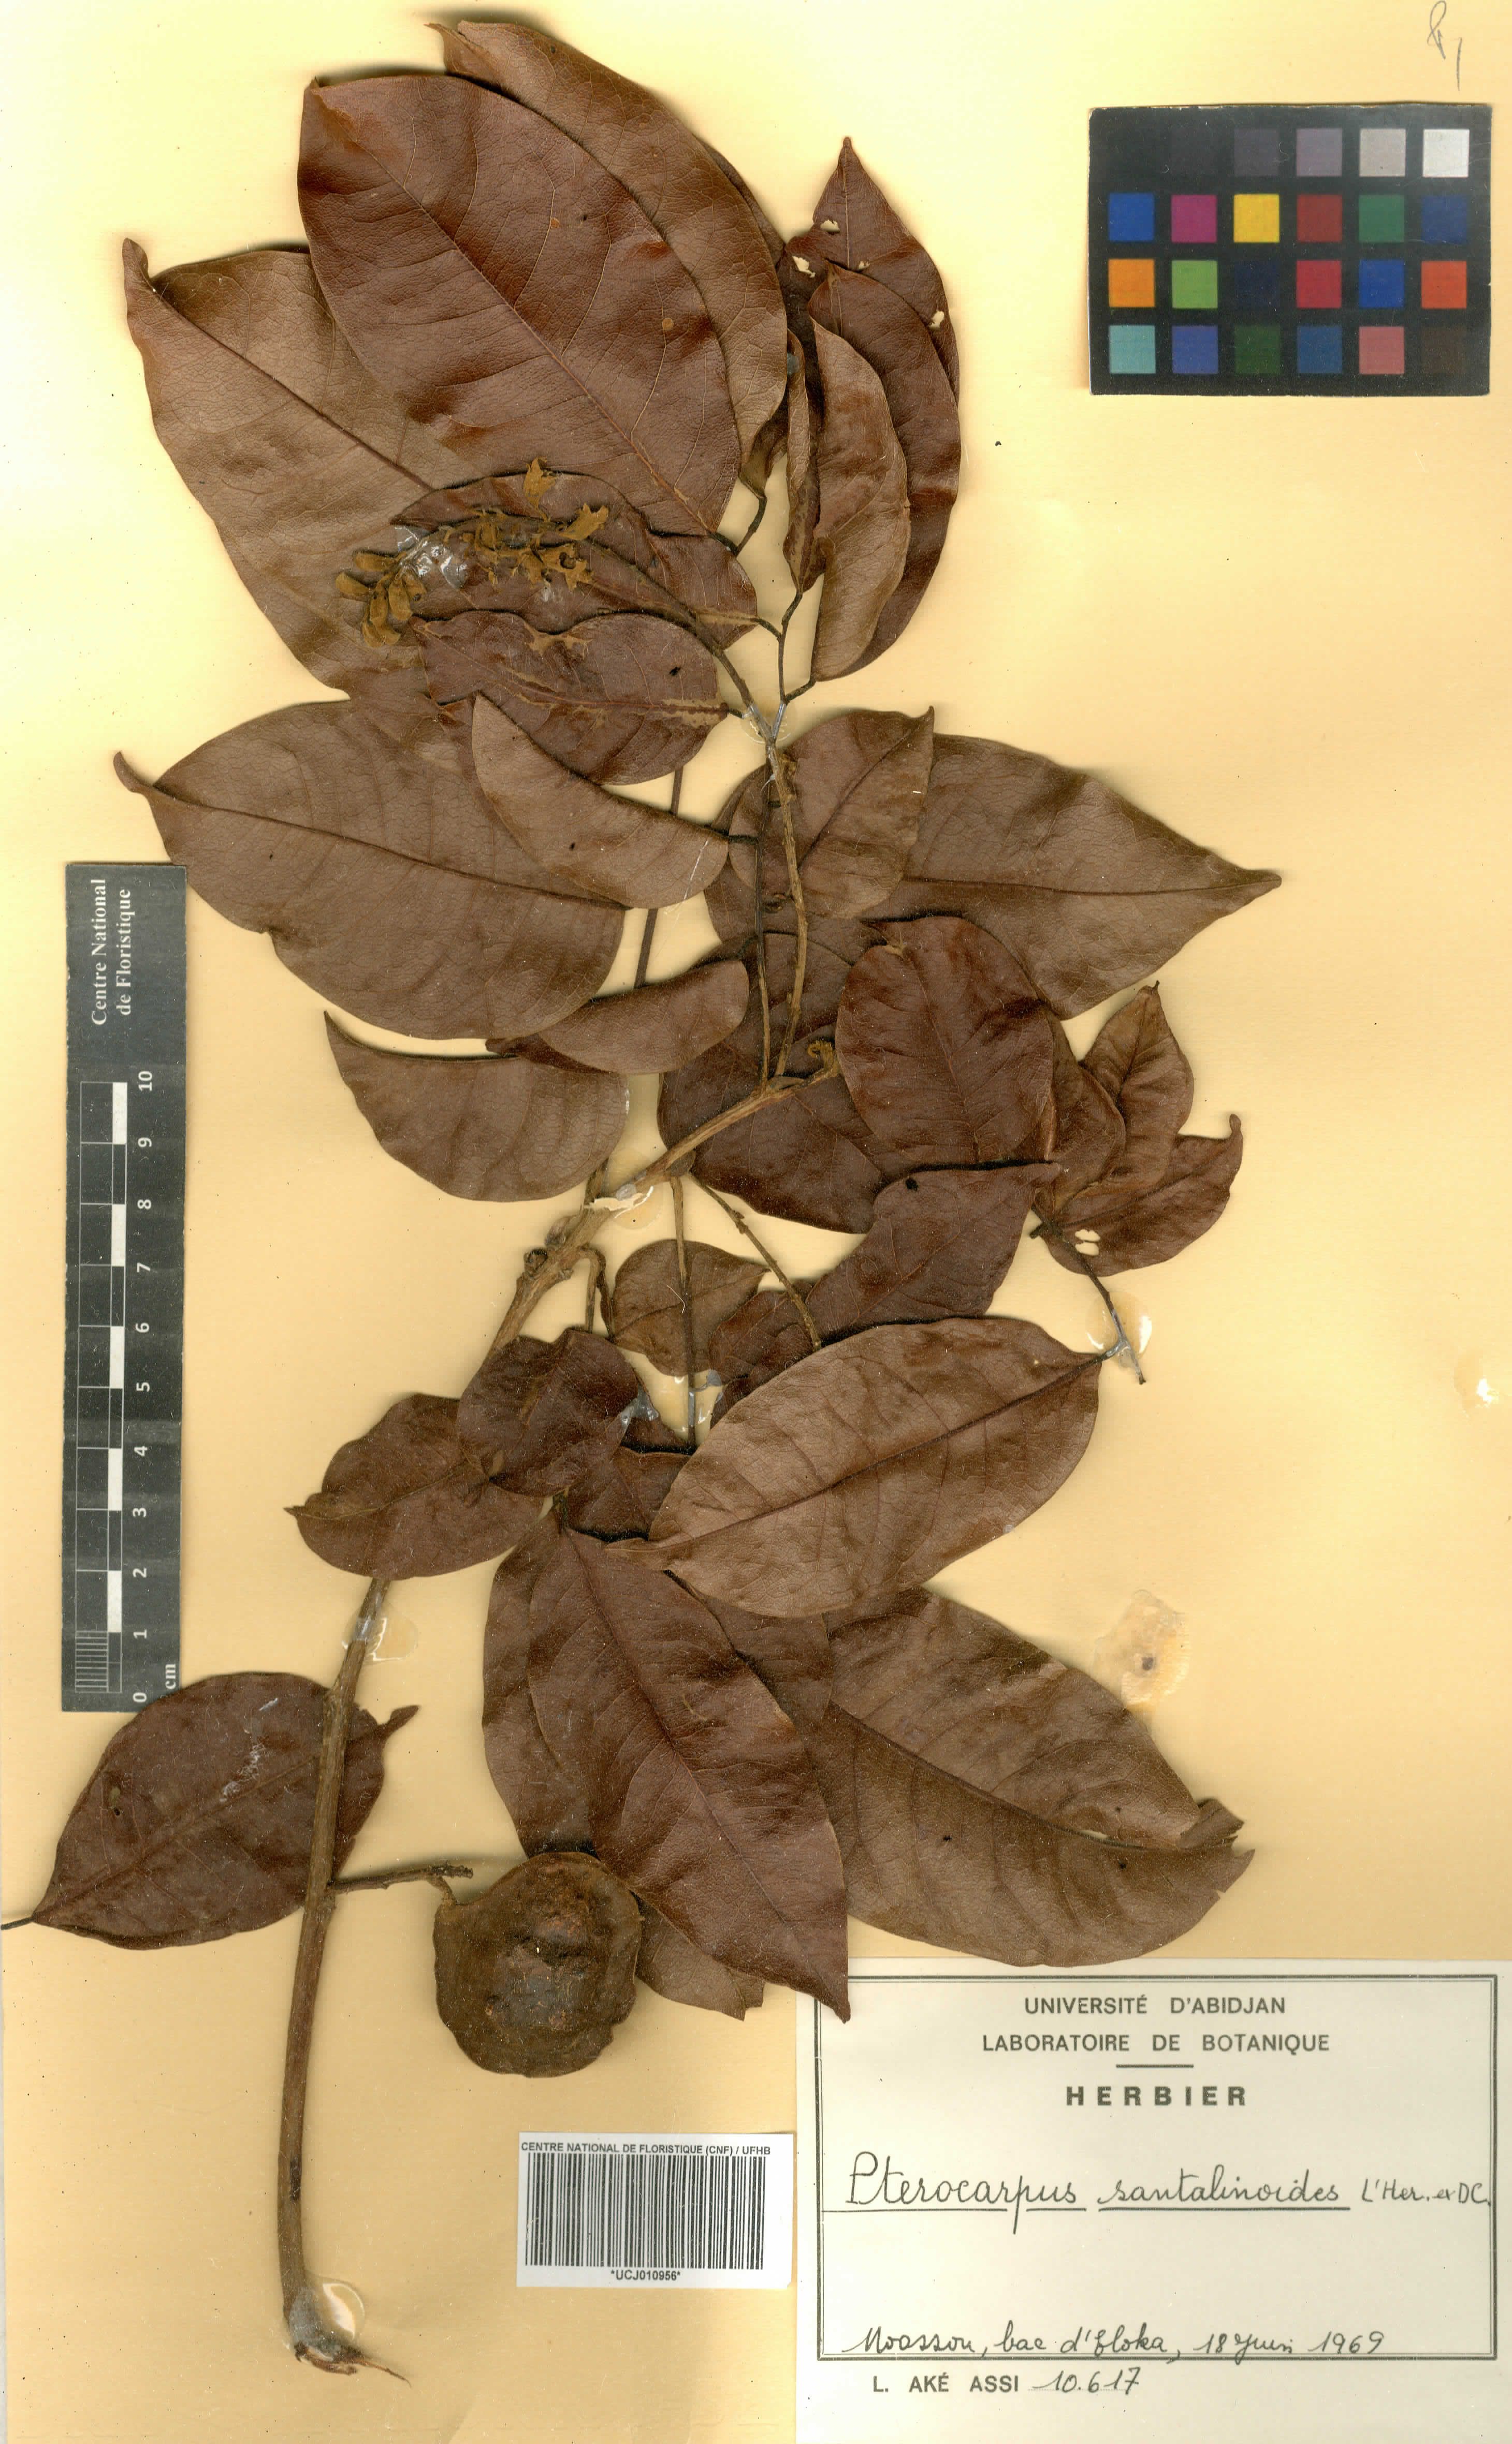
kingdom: Plantae
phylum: Tracheophyta
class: Magnoliopsida
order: Fabales
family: Fabaceae
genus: Pterocarpus
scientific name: Pterocarpus santalinoides
